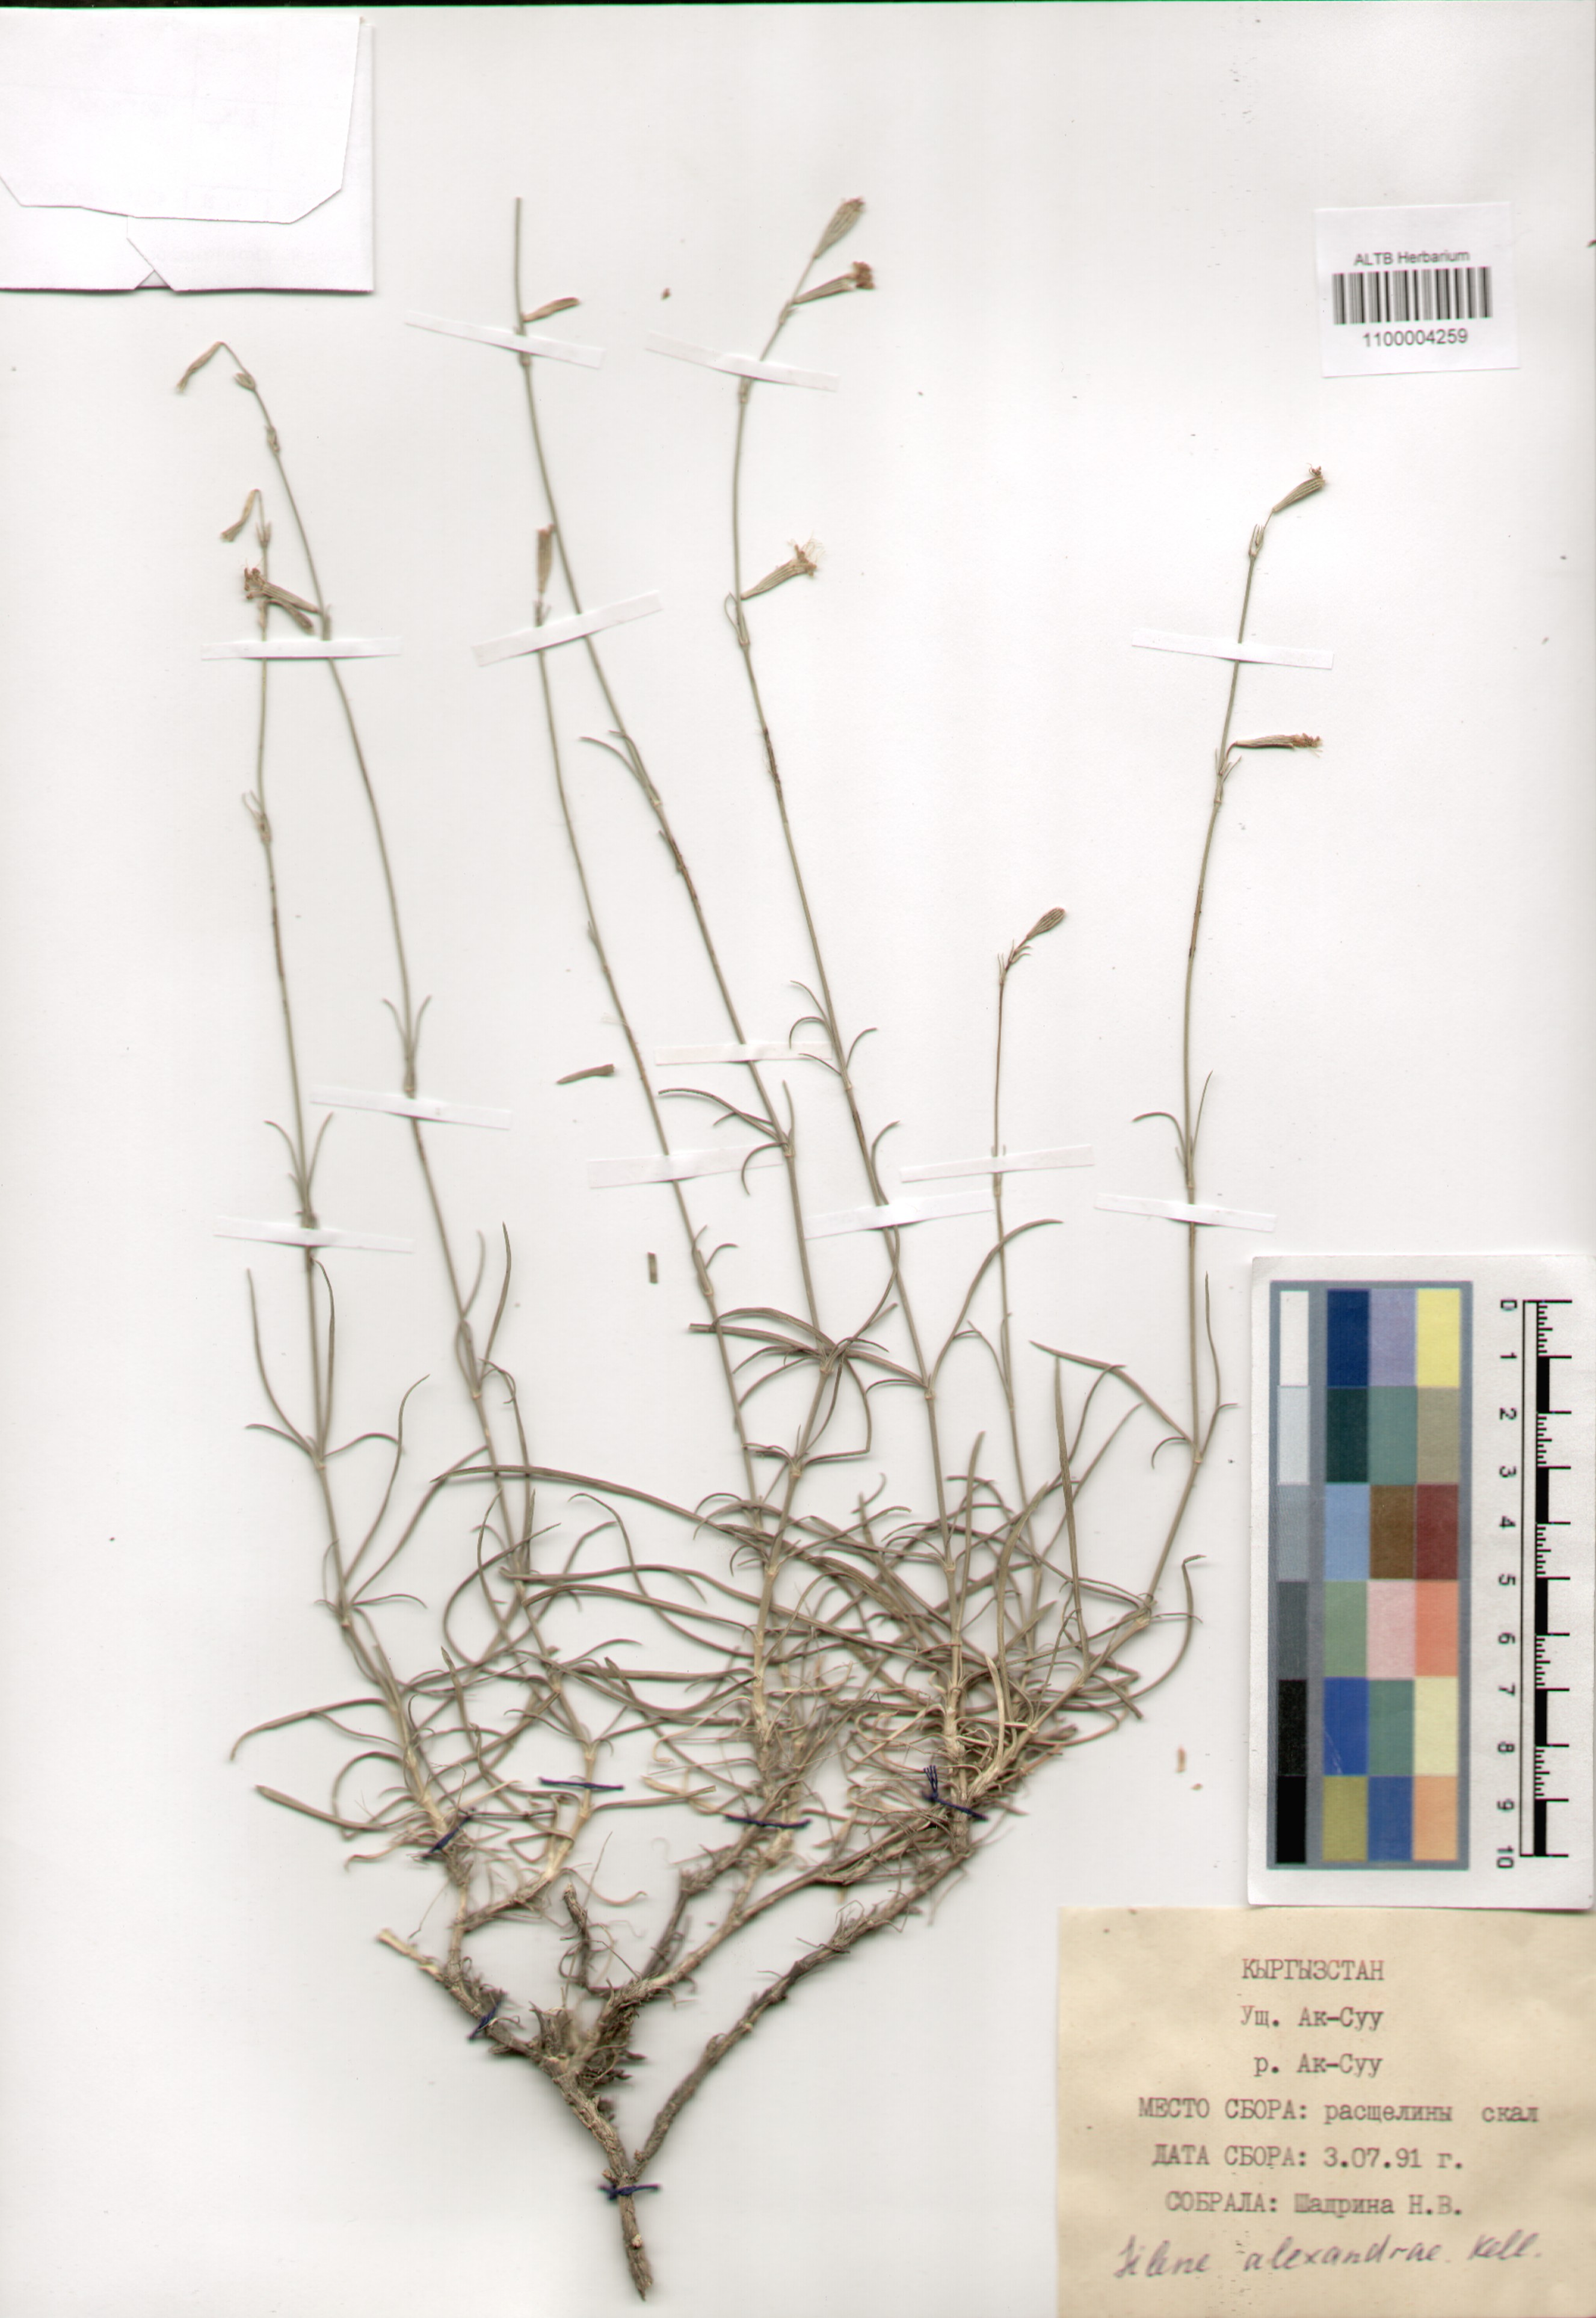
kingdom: Plantae
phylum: Tracheophyta
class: Magnoliopsida
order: Caryophyllales
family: Caryophyllaceae
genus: Silene
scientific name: Silene alexandrae
